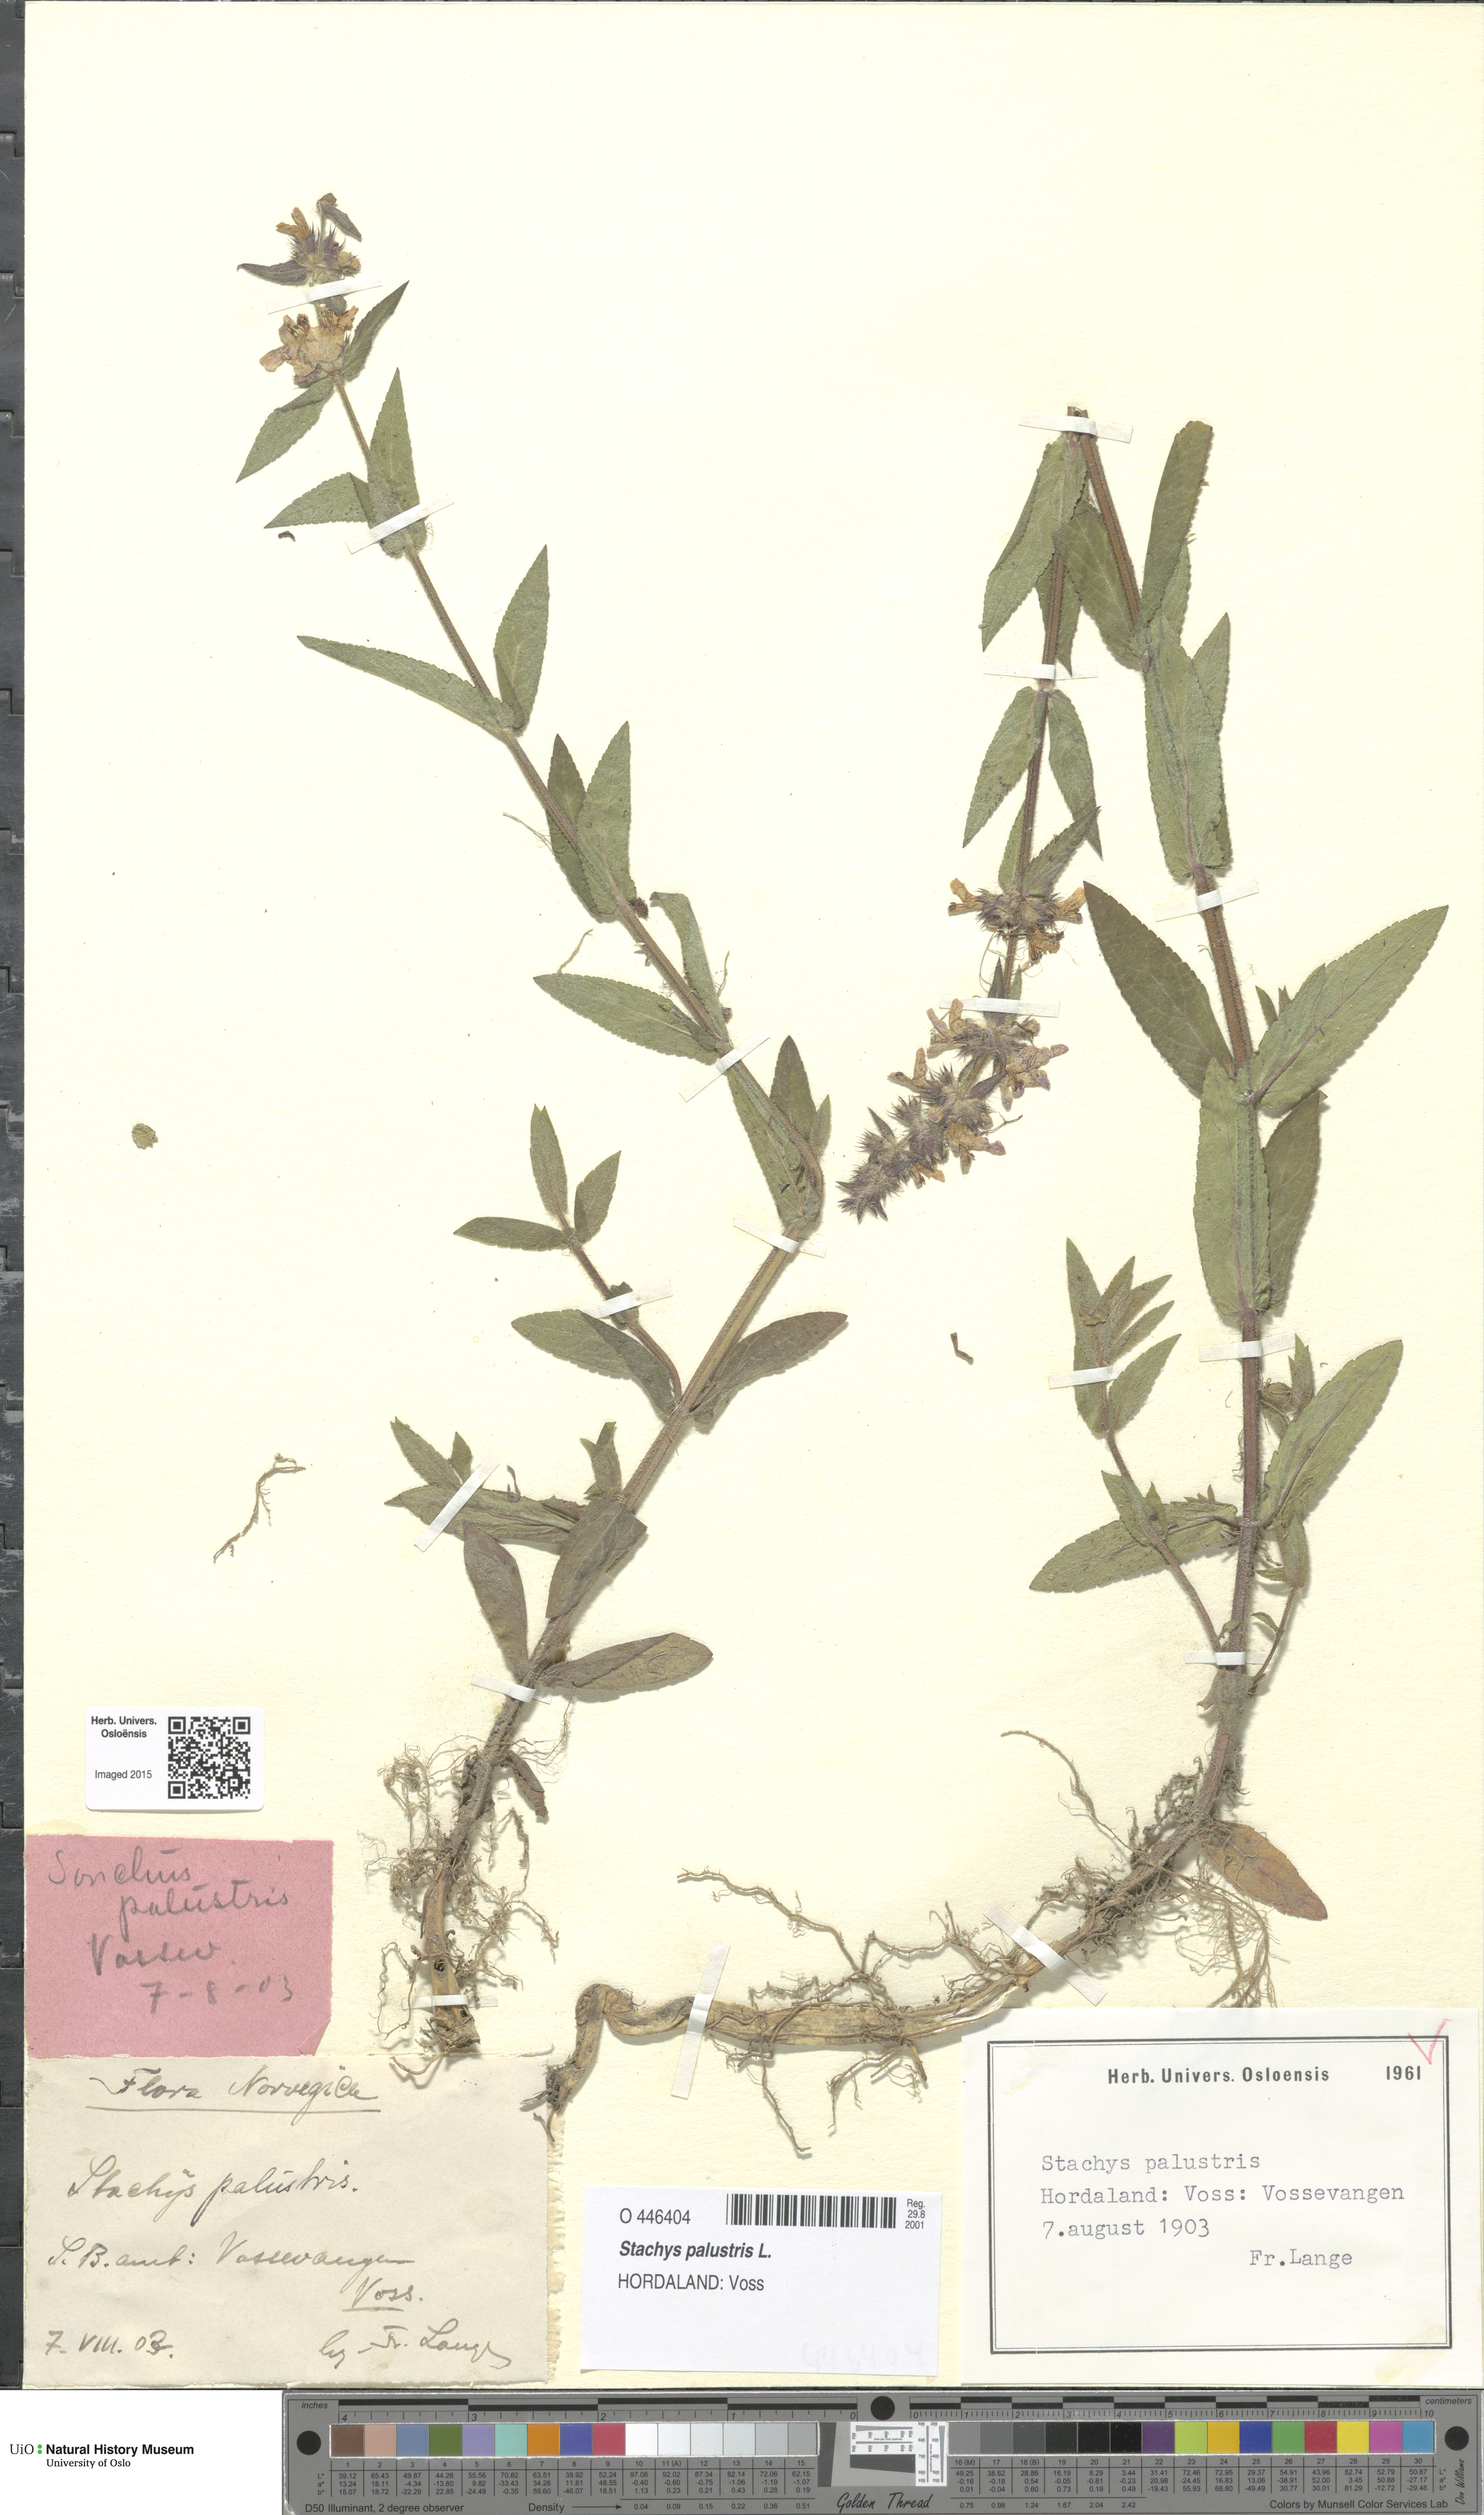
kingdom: Plantae
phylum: Tracheophyta
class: Magnoliopsida
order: Lamiales
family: Lamiaceae
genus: Stachys
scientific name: Stachys palustris
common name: Marsh woundwort
